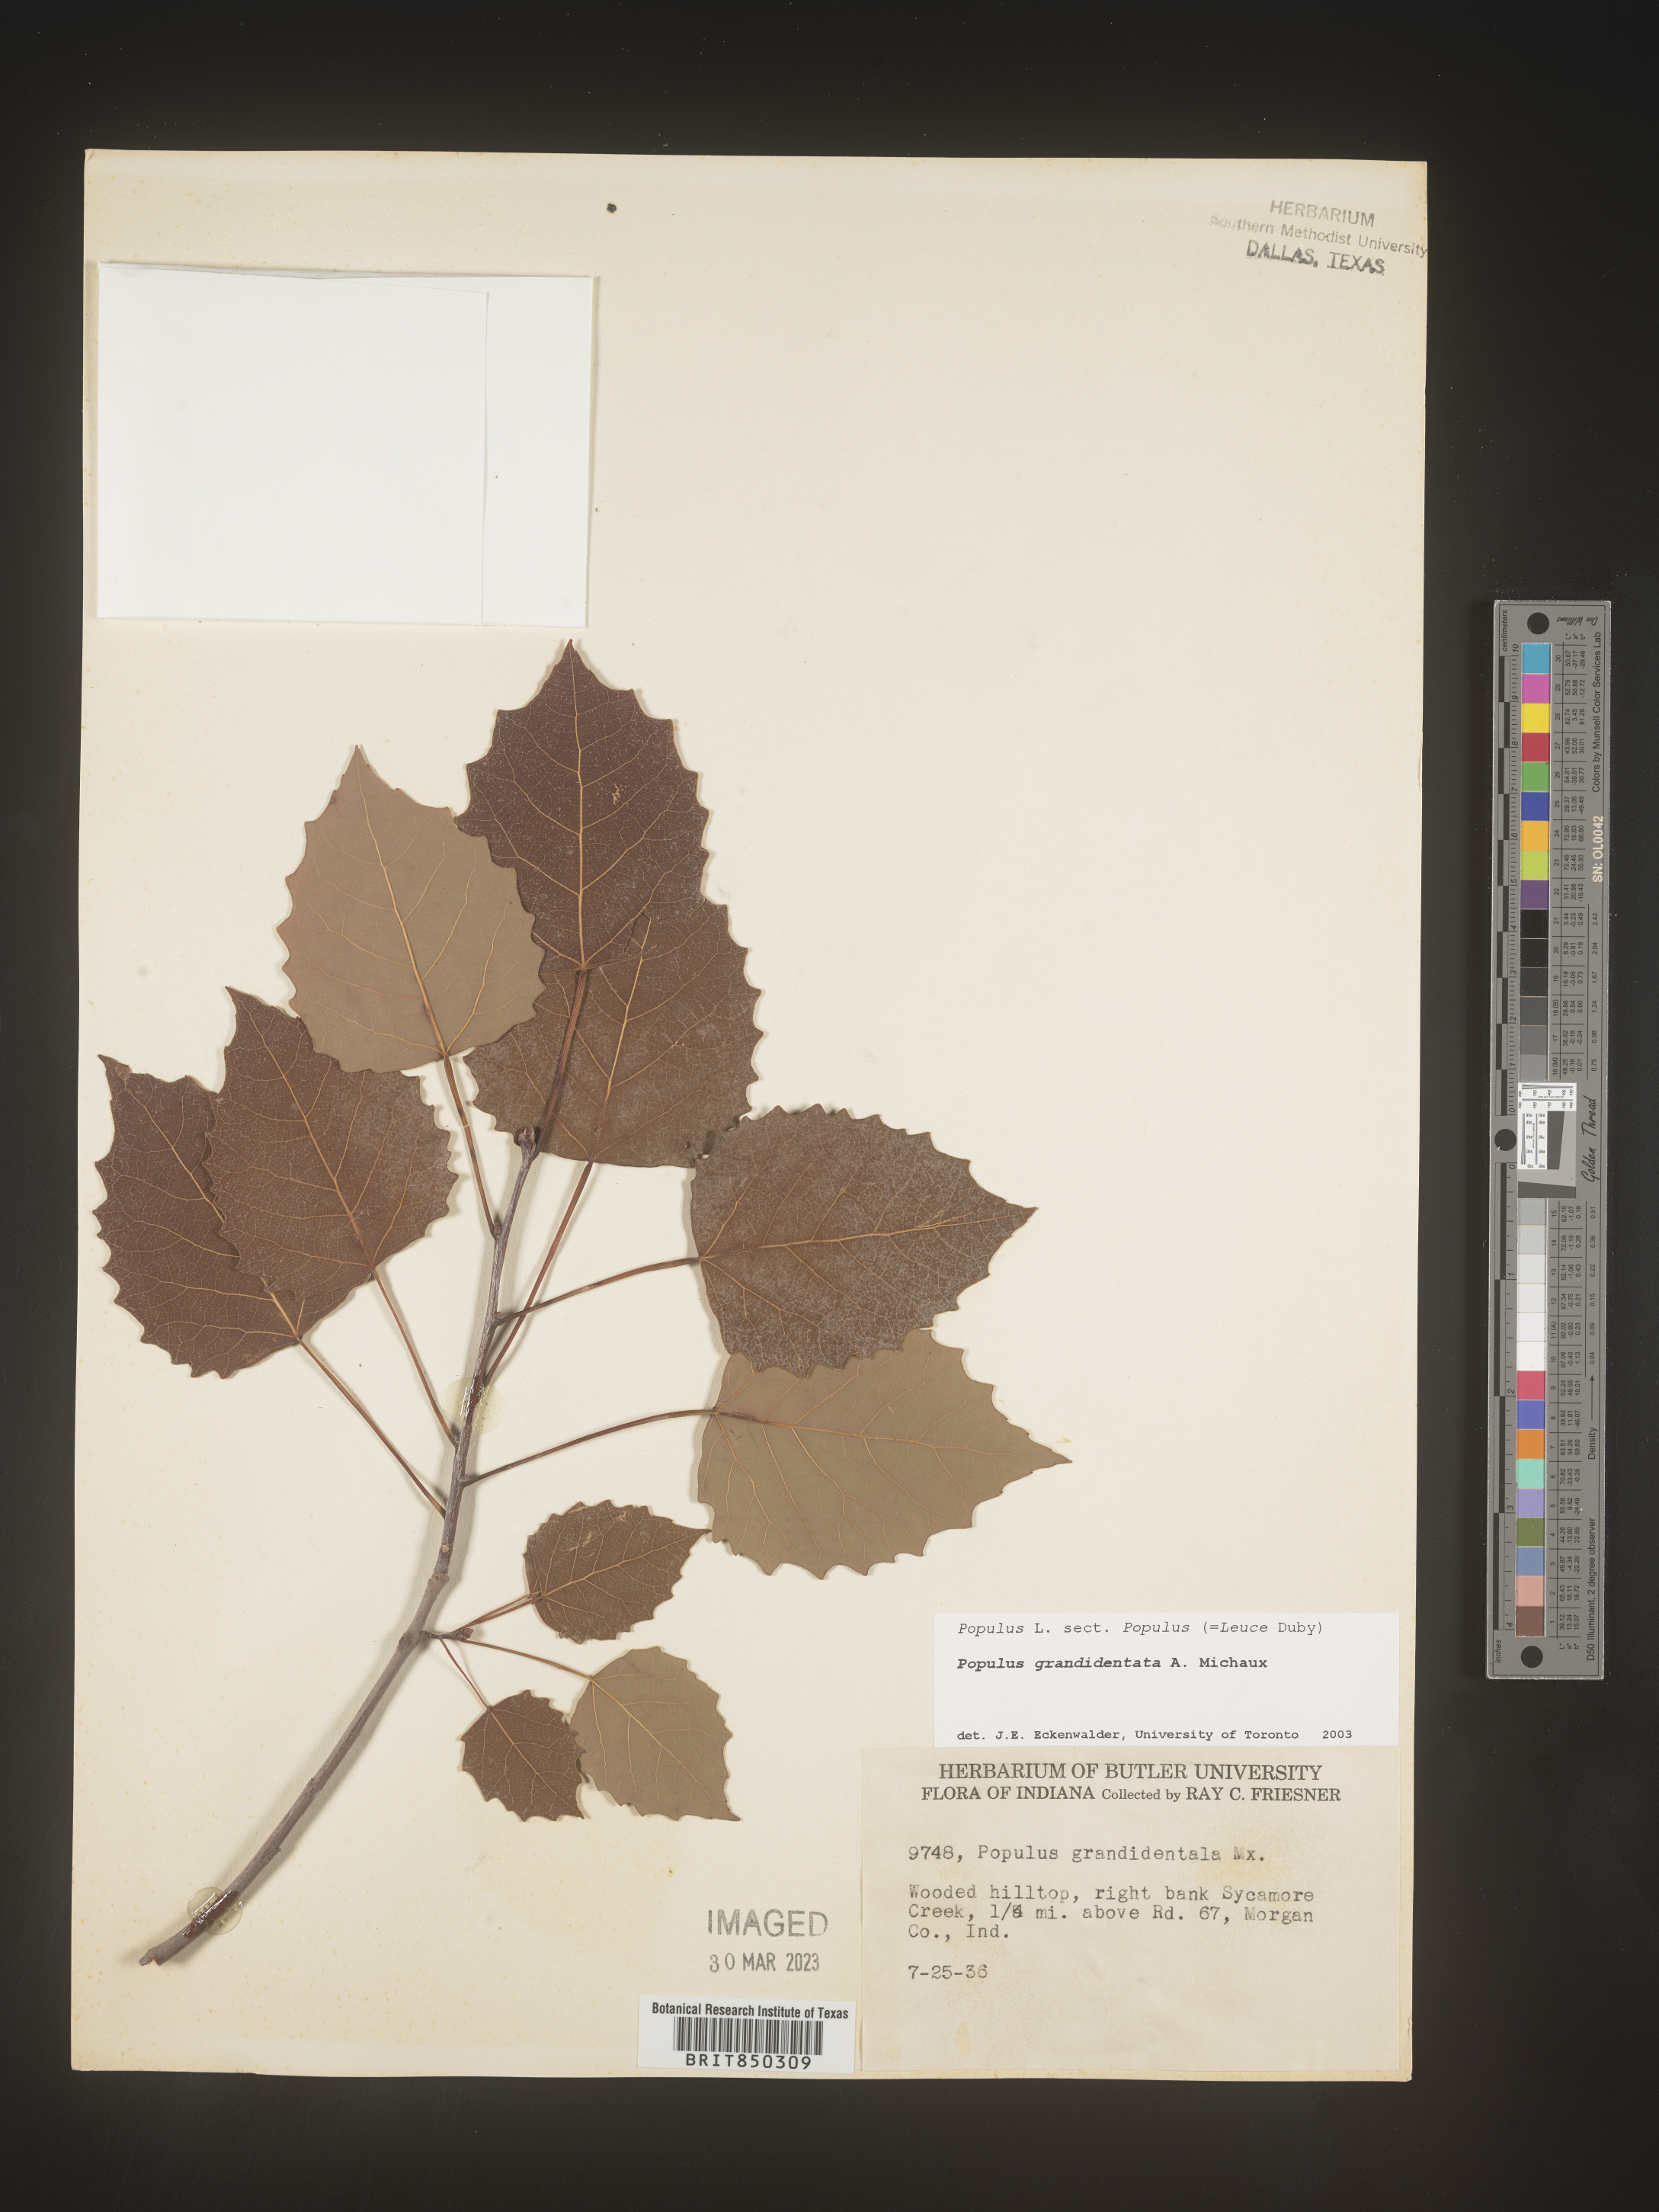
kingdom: Plantae
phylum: Tracheophyta
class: Magnoliopsida
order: Malpighiales
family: Salicaceae
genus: Populus
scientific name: Populus grandidentata
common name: Bigtooth aspen
